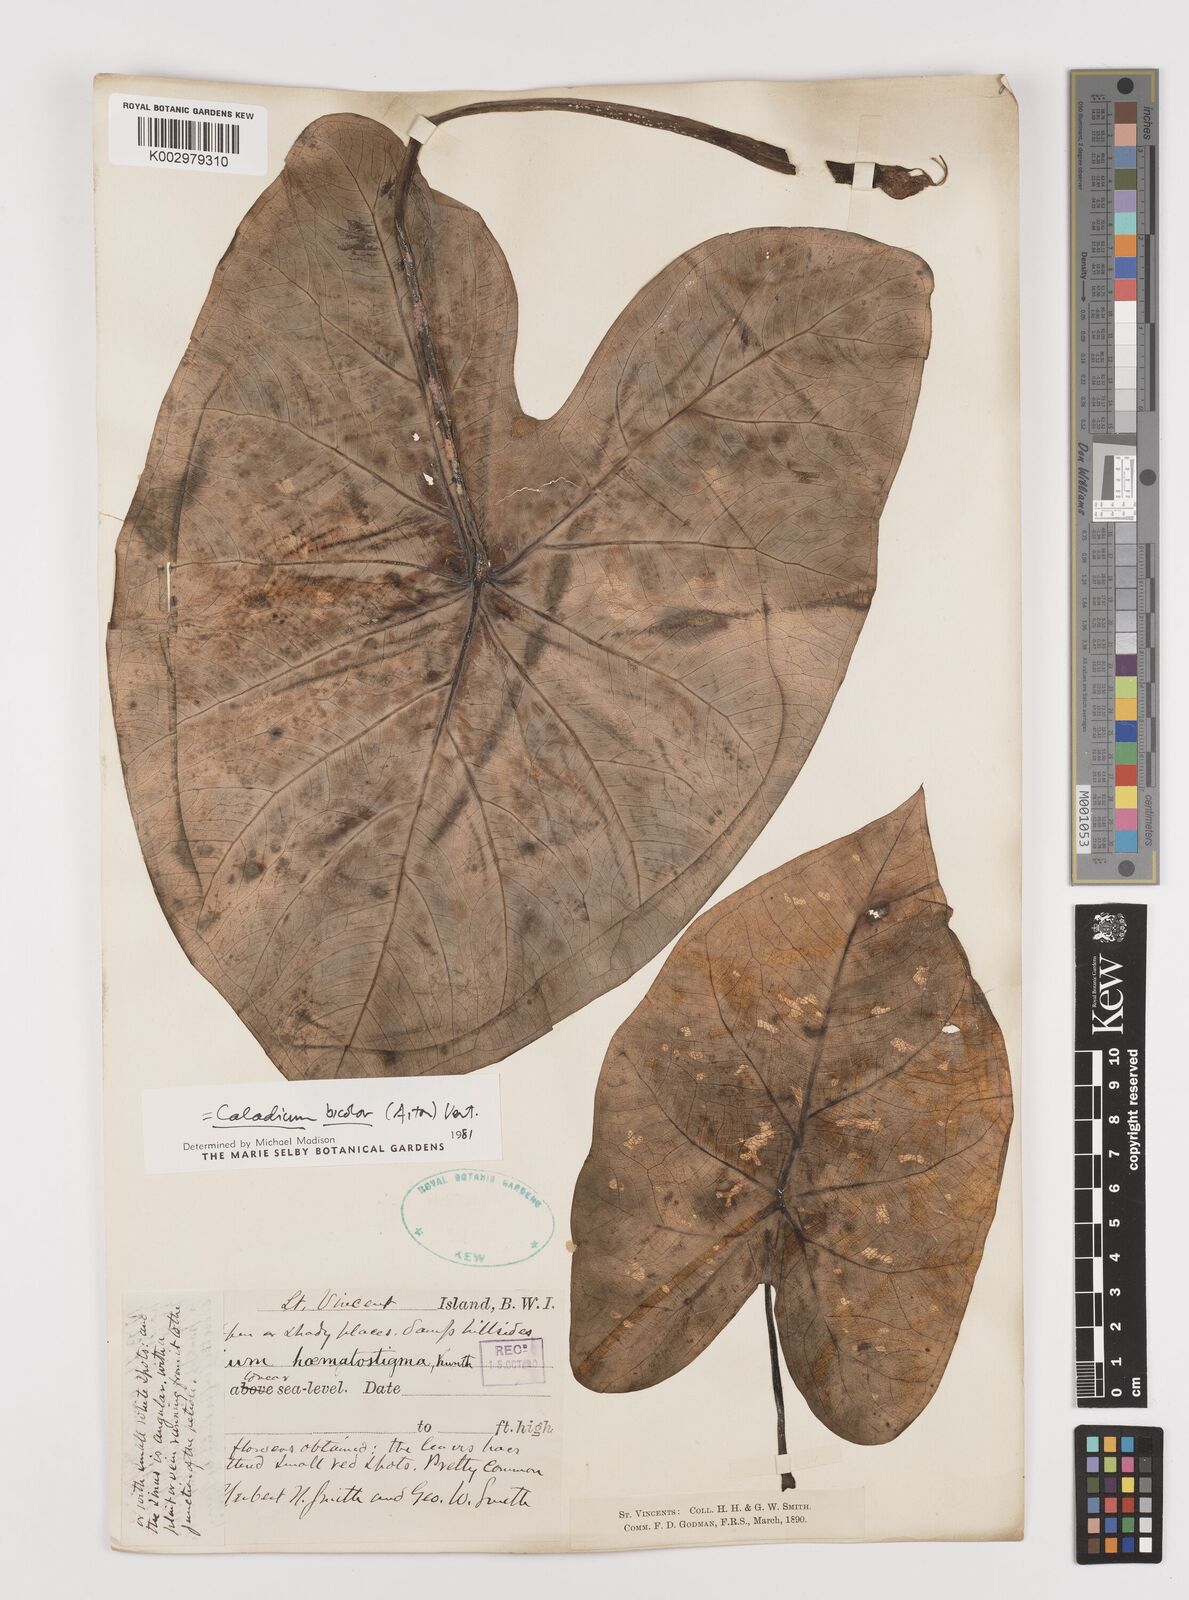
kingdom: Plantae
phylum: Tracheophyta
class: Liliopsida
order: Alismatales
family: Araceae
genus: Caladium
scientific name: Caladium bicolor
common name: Artist's pallet
